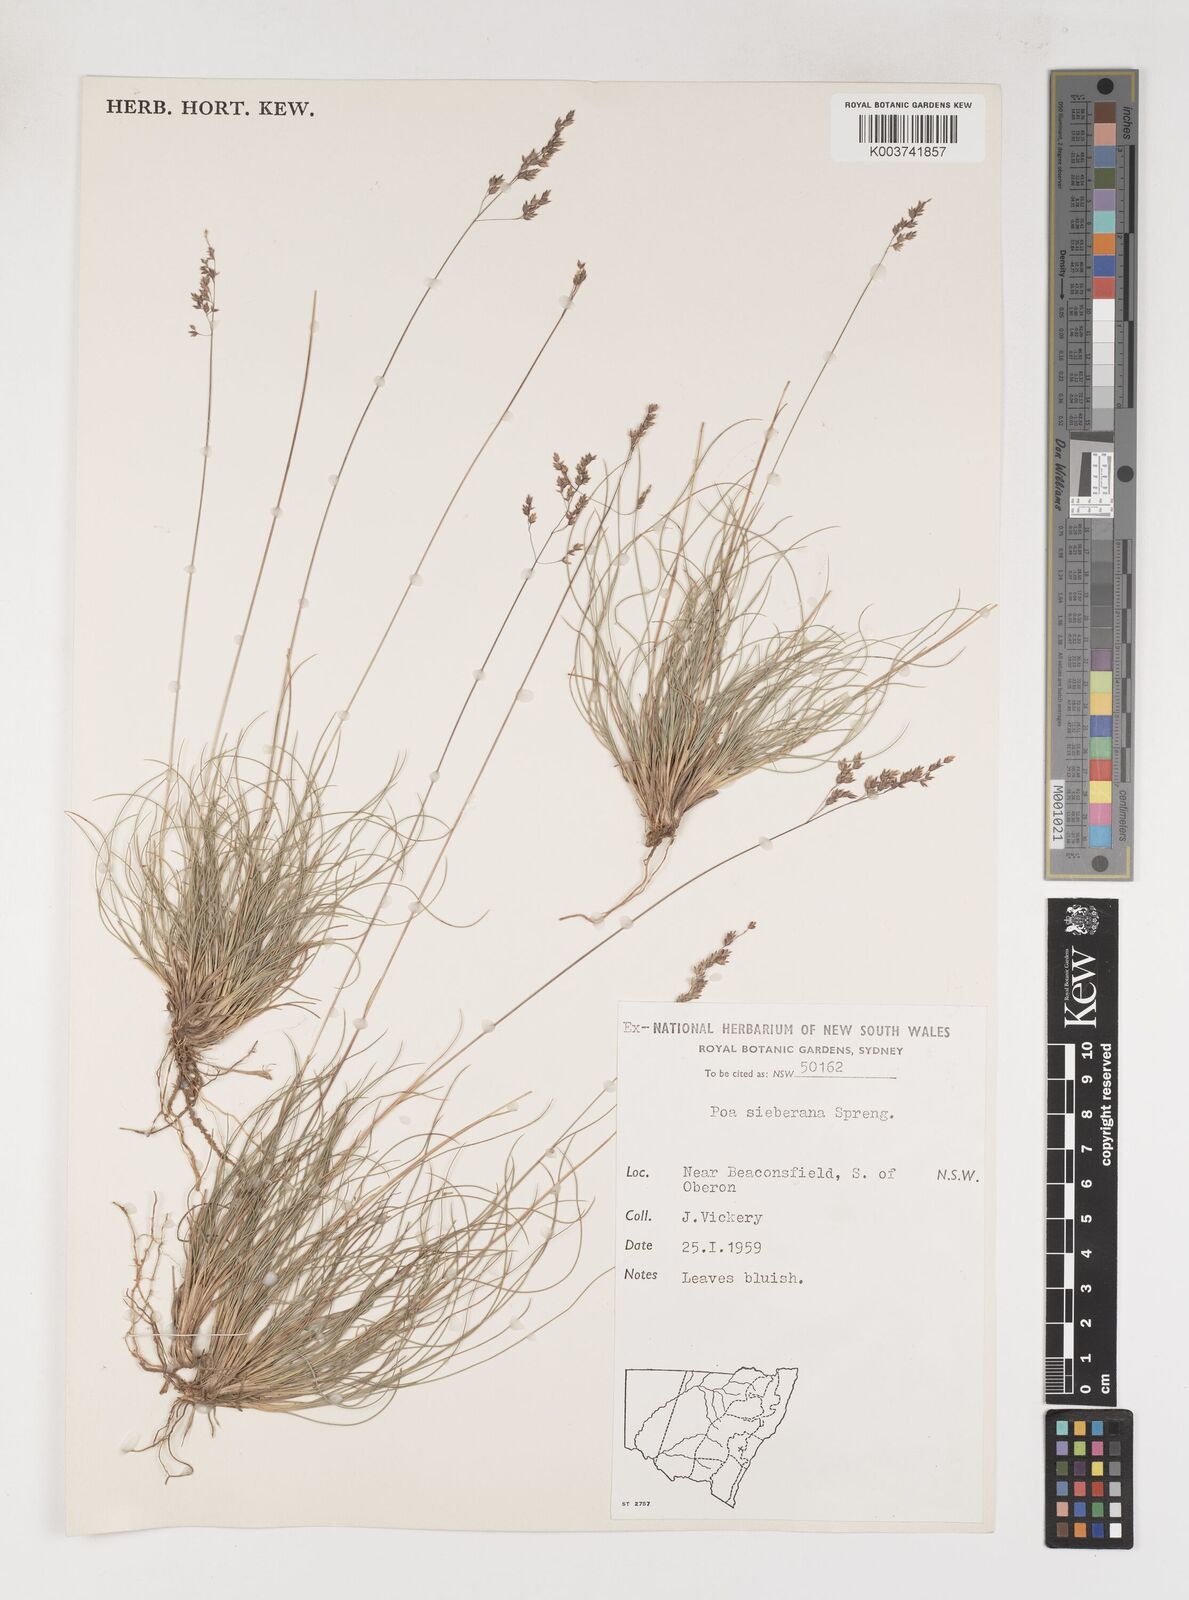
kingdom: Plantae
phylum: Tracheophyta
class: Liliopsida
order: Poales
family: Poaceae
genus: Poa
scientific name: Poa sieberiana
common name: Tussock poa
